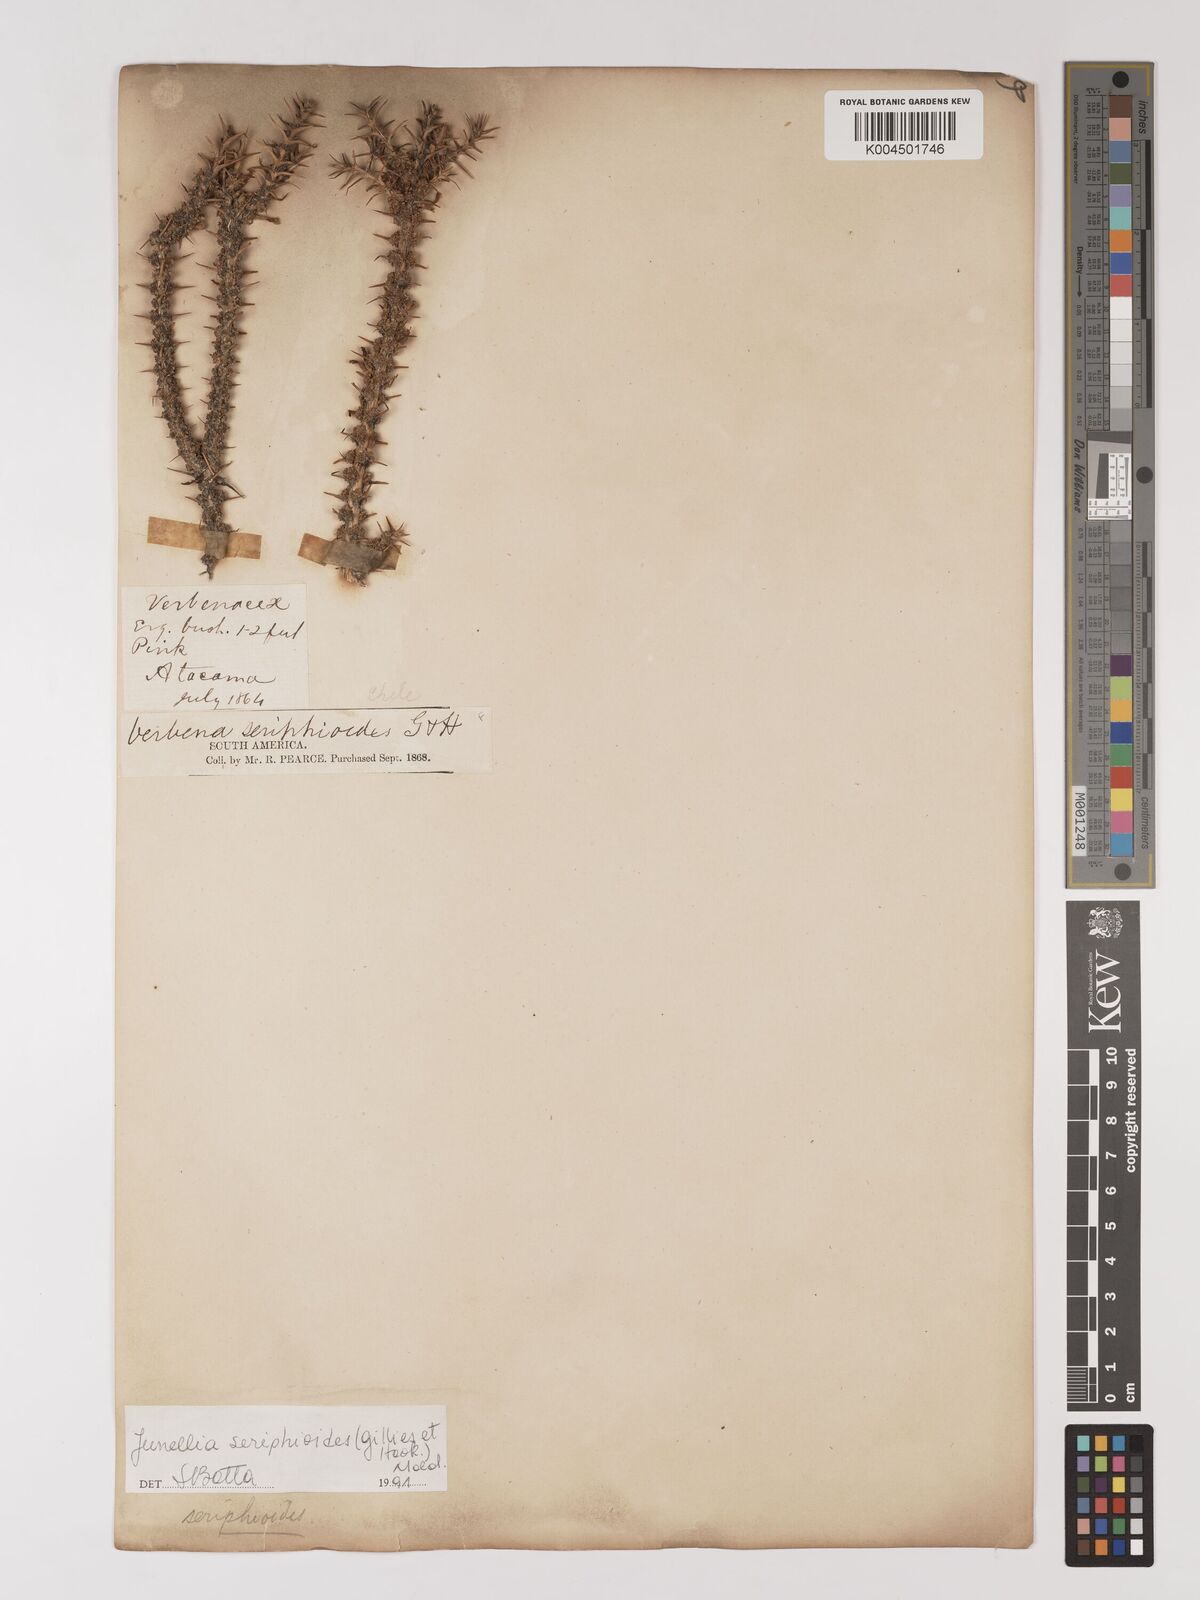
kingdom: Plantae
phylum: Tracheophyta
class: Magnoliopsida
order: Lamiales
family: Verbenaceae
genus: Junellia
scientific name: Junellia seriphioides
